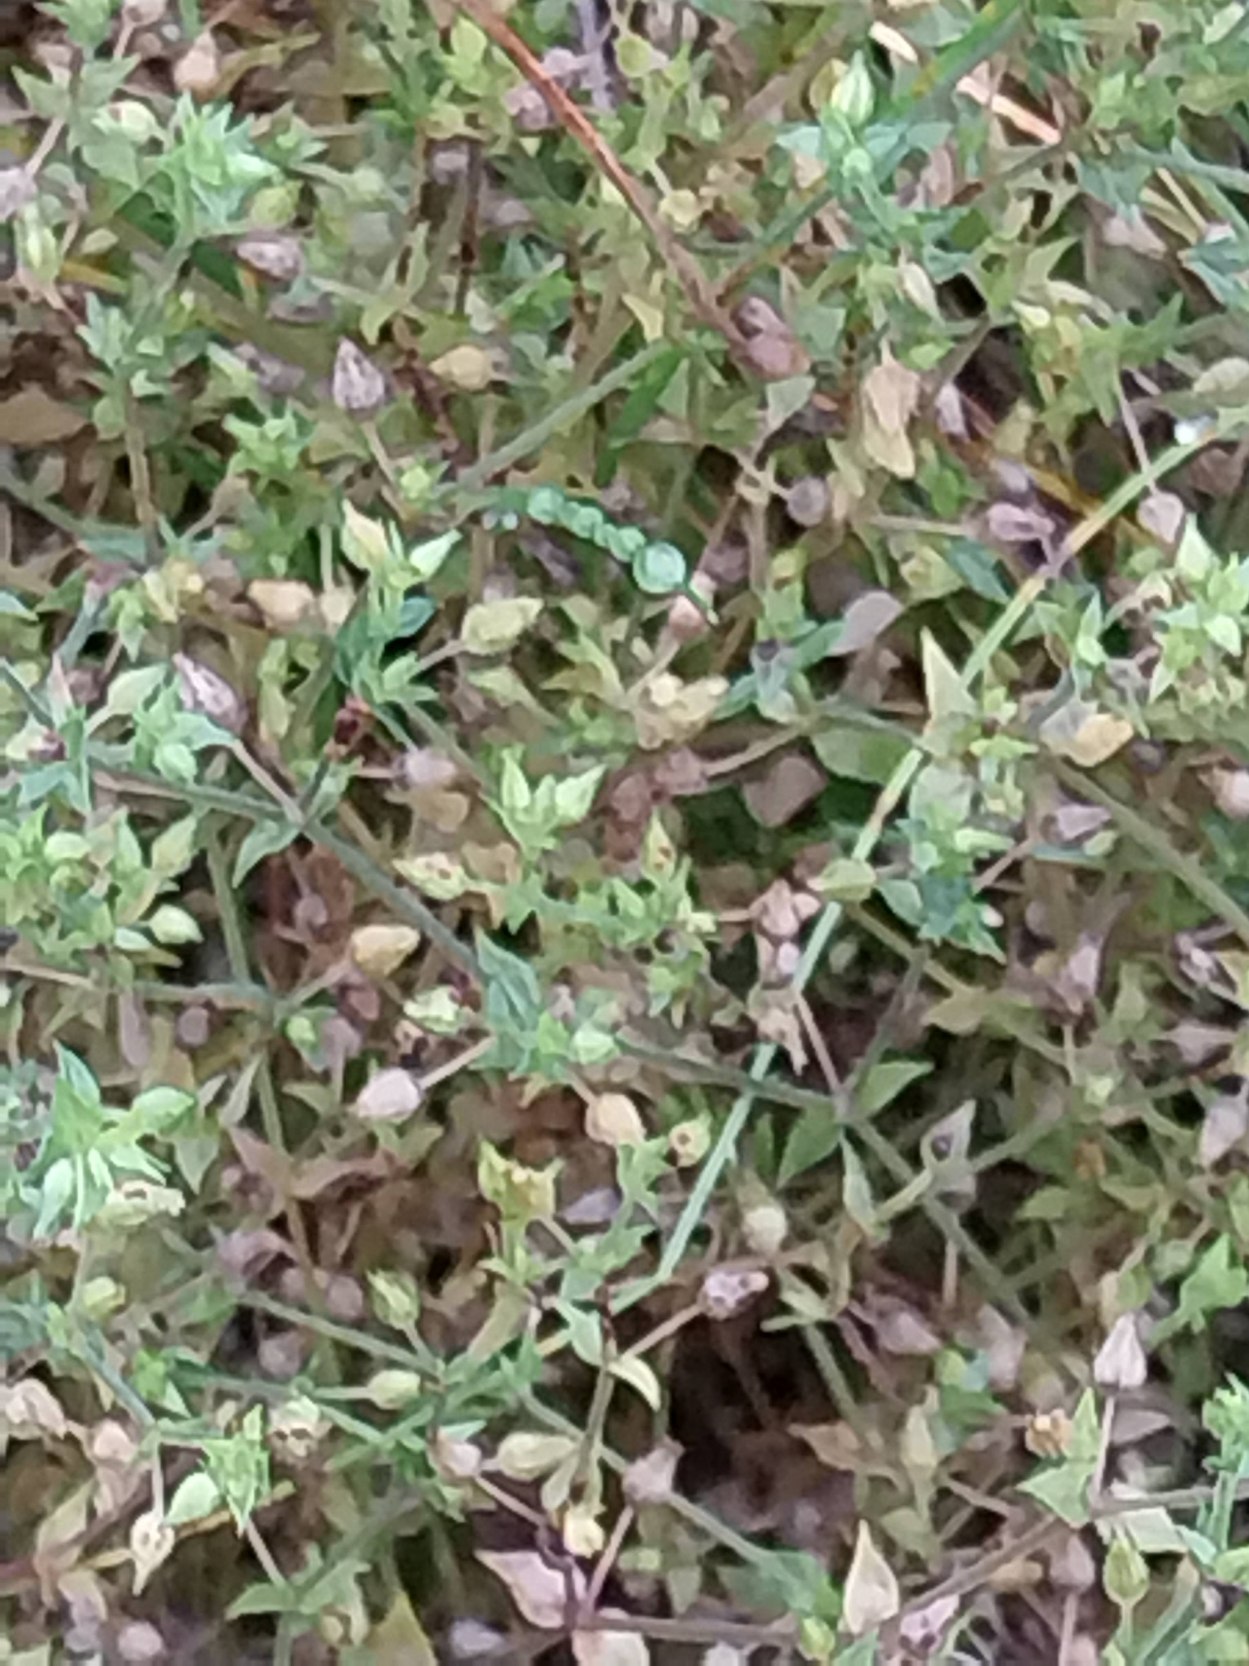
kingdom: Plantae
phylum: Tracheophyta
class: Magnoliopsida
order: Caryophyllales
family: Caryophyllaceae
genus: Arenaria
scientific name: Arenaria serpyllifolia
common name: Almindelig markarve
